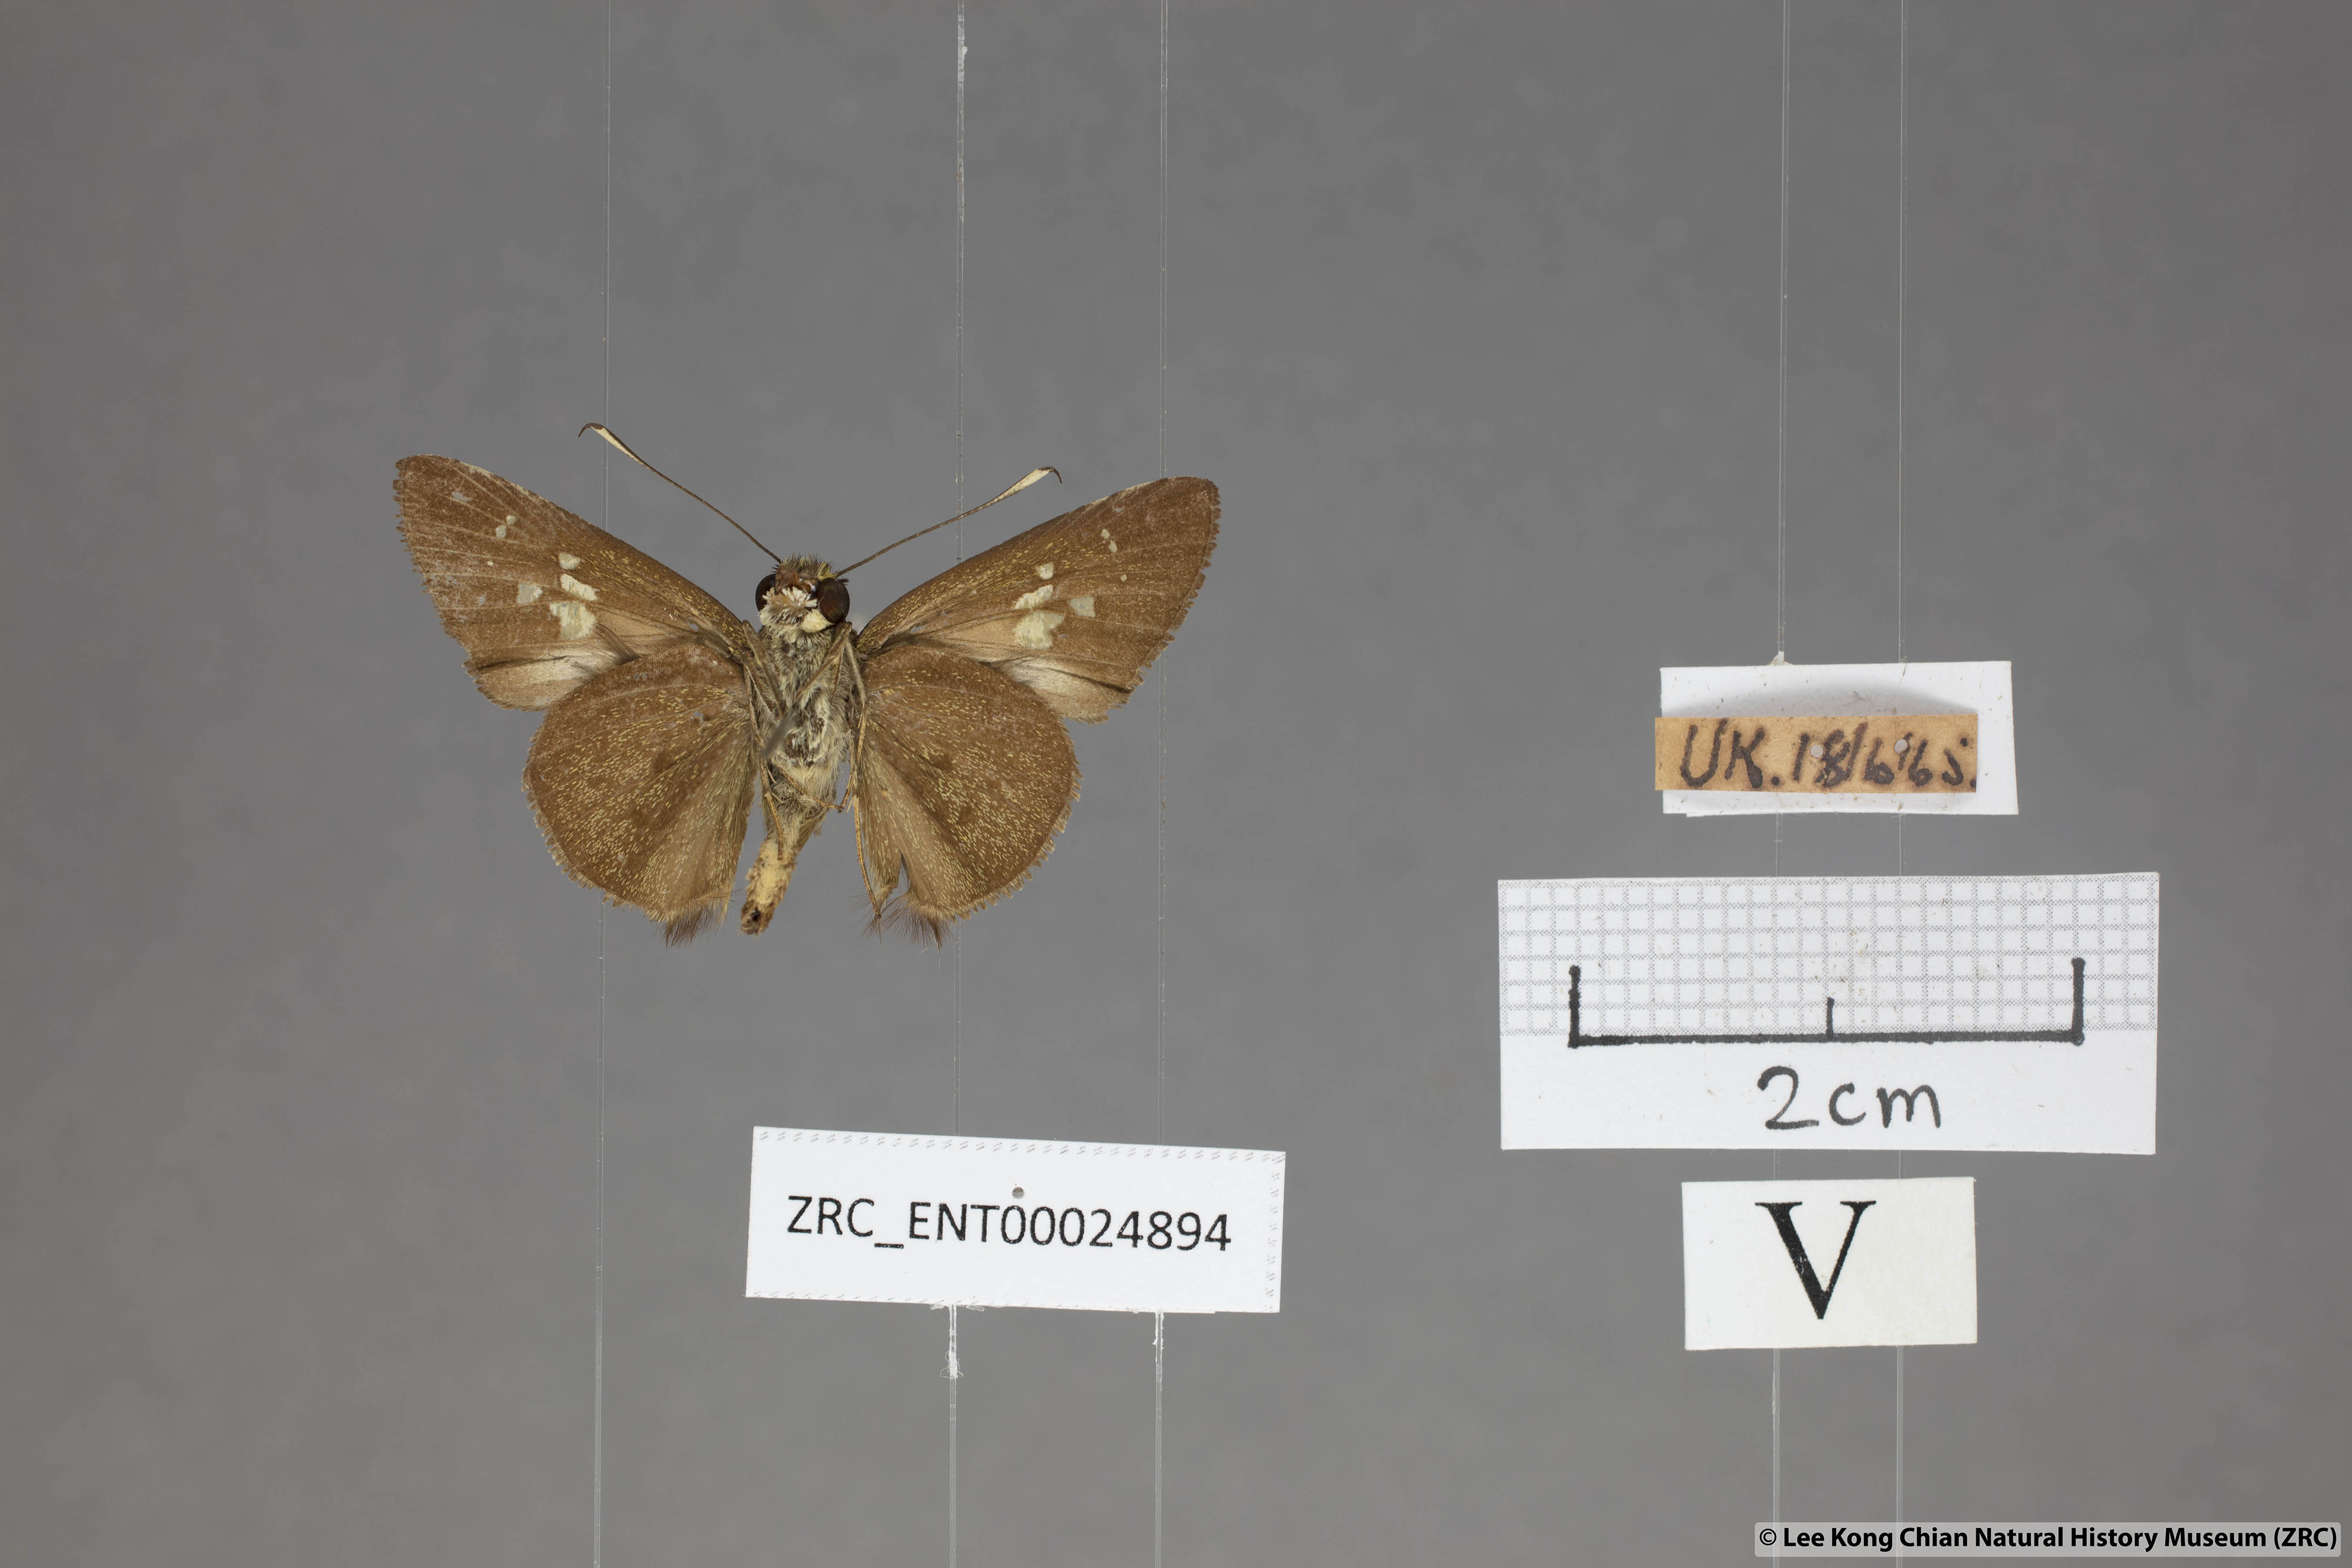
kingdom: Animalia
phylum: Arthropoda
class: Insecta
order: Lepidoptera
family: Hesperiidae
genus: Isma
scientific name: Isma
